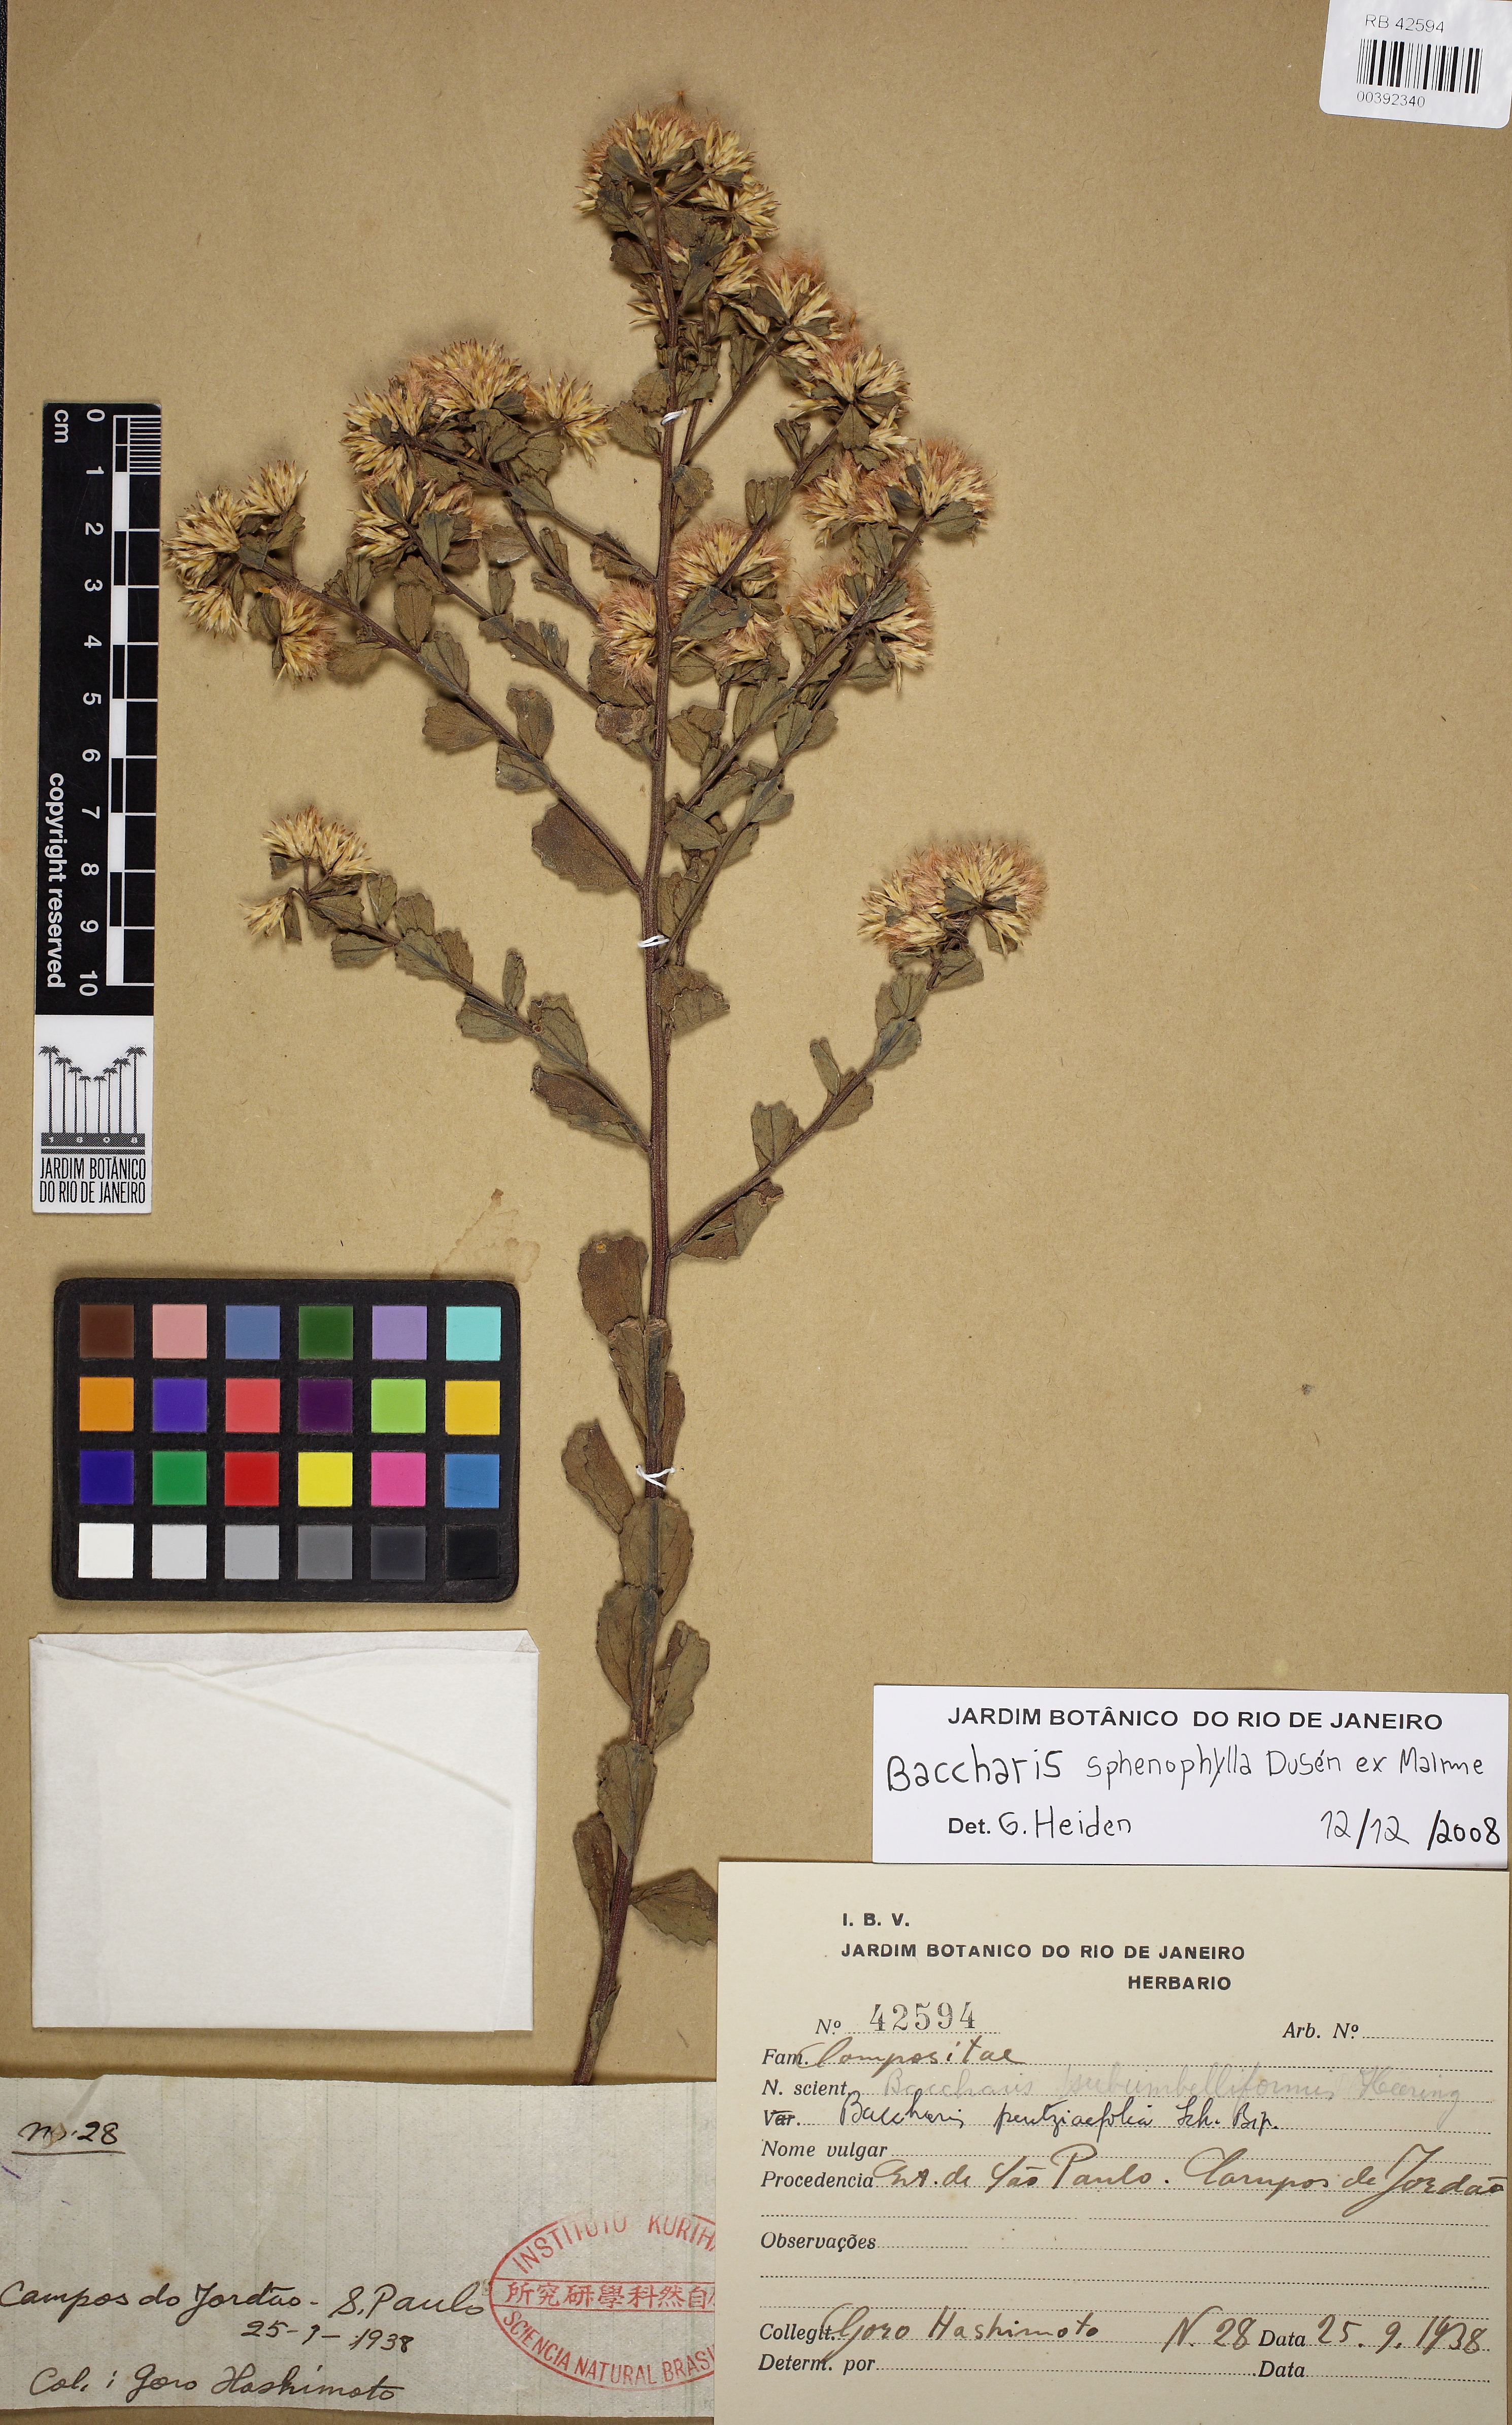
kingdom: Plantae
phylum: Tracheophyta
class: Magnoliopsida
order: Asterales
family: Asteraceae
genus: Baccharis
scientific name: Baccharis pentziifolia
